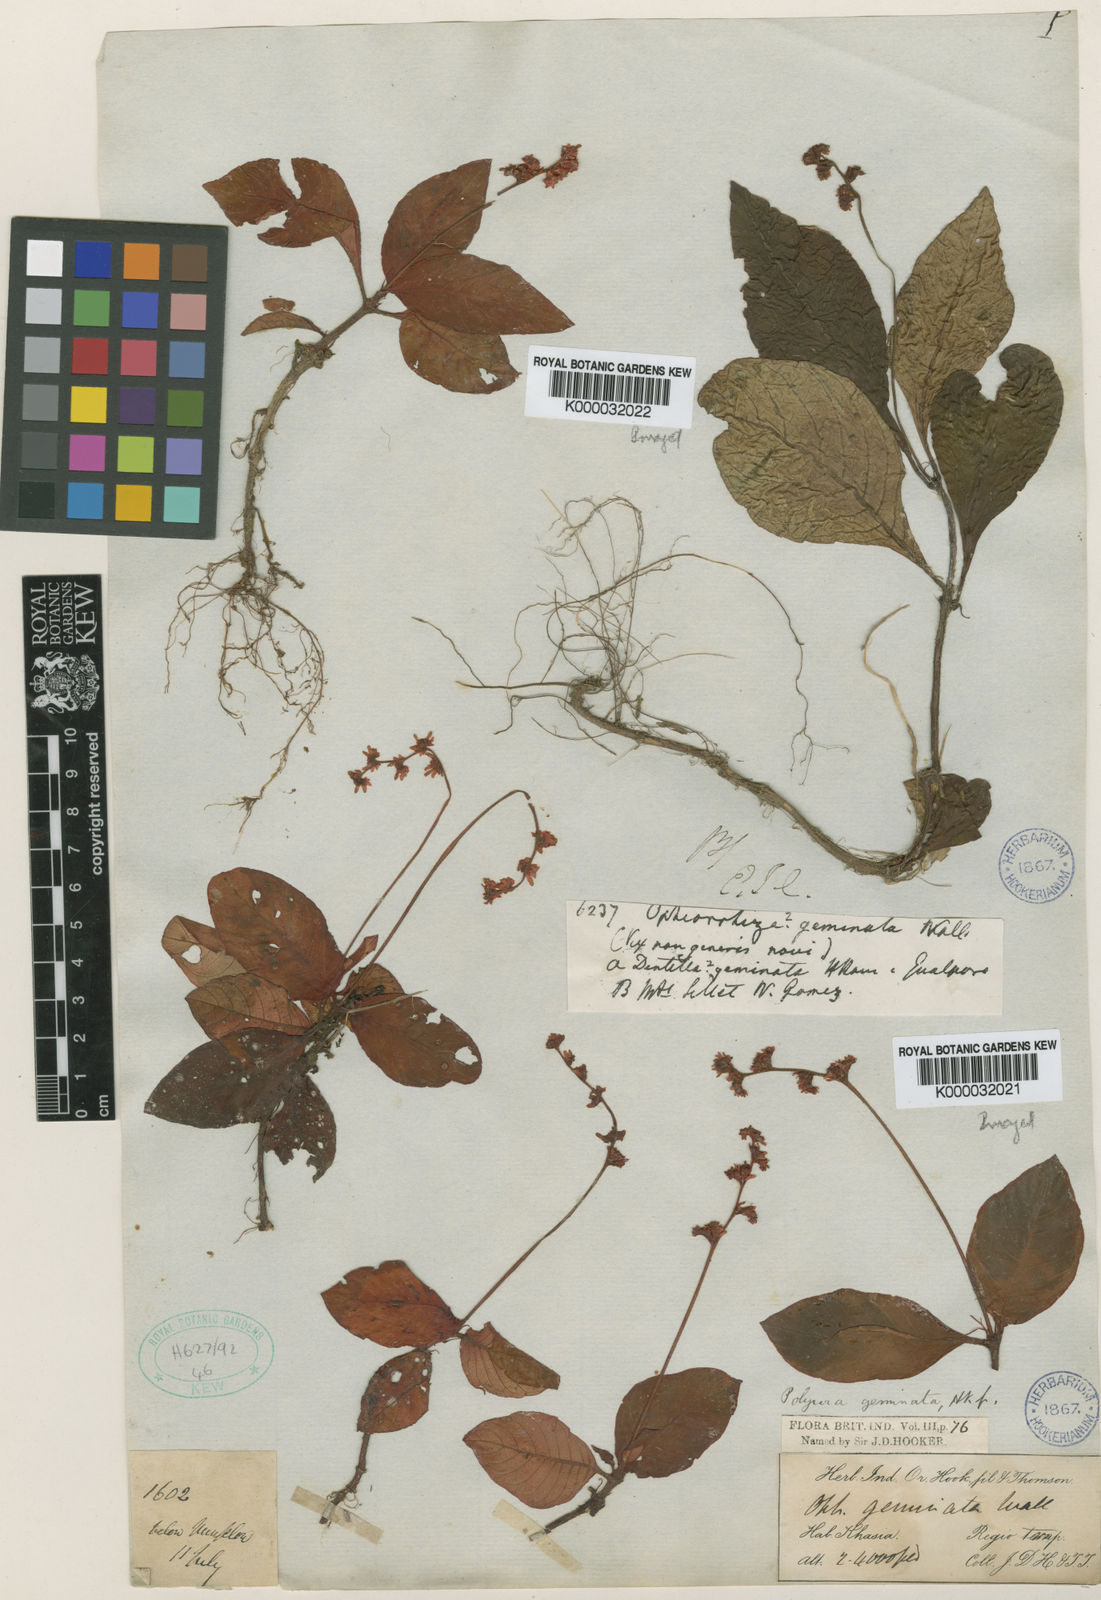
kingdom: Plantae
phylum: Tracheophyta
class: Magnoliopsida
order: Gentianales
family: Rubiaceae
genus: Polyura
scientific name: Polyura
